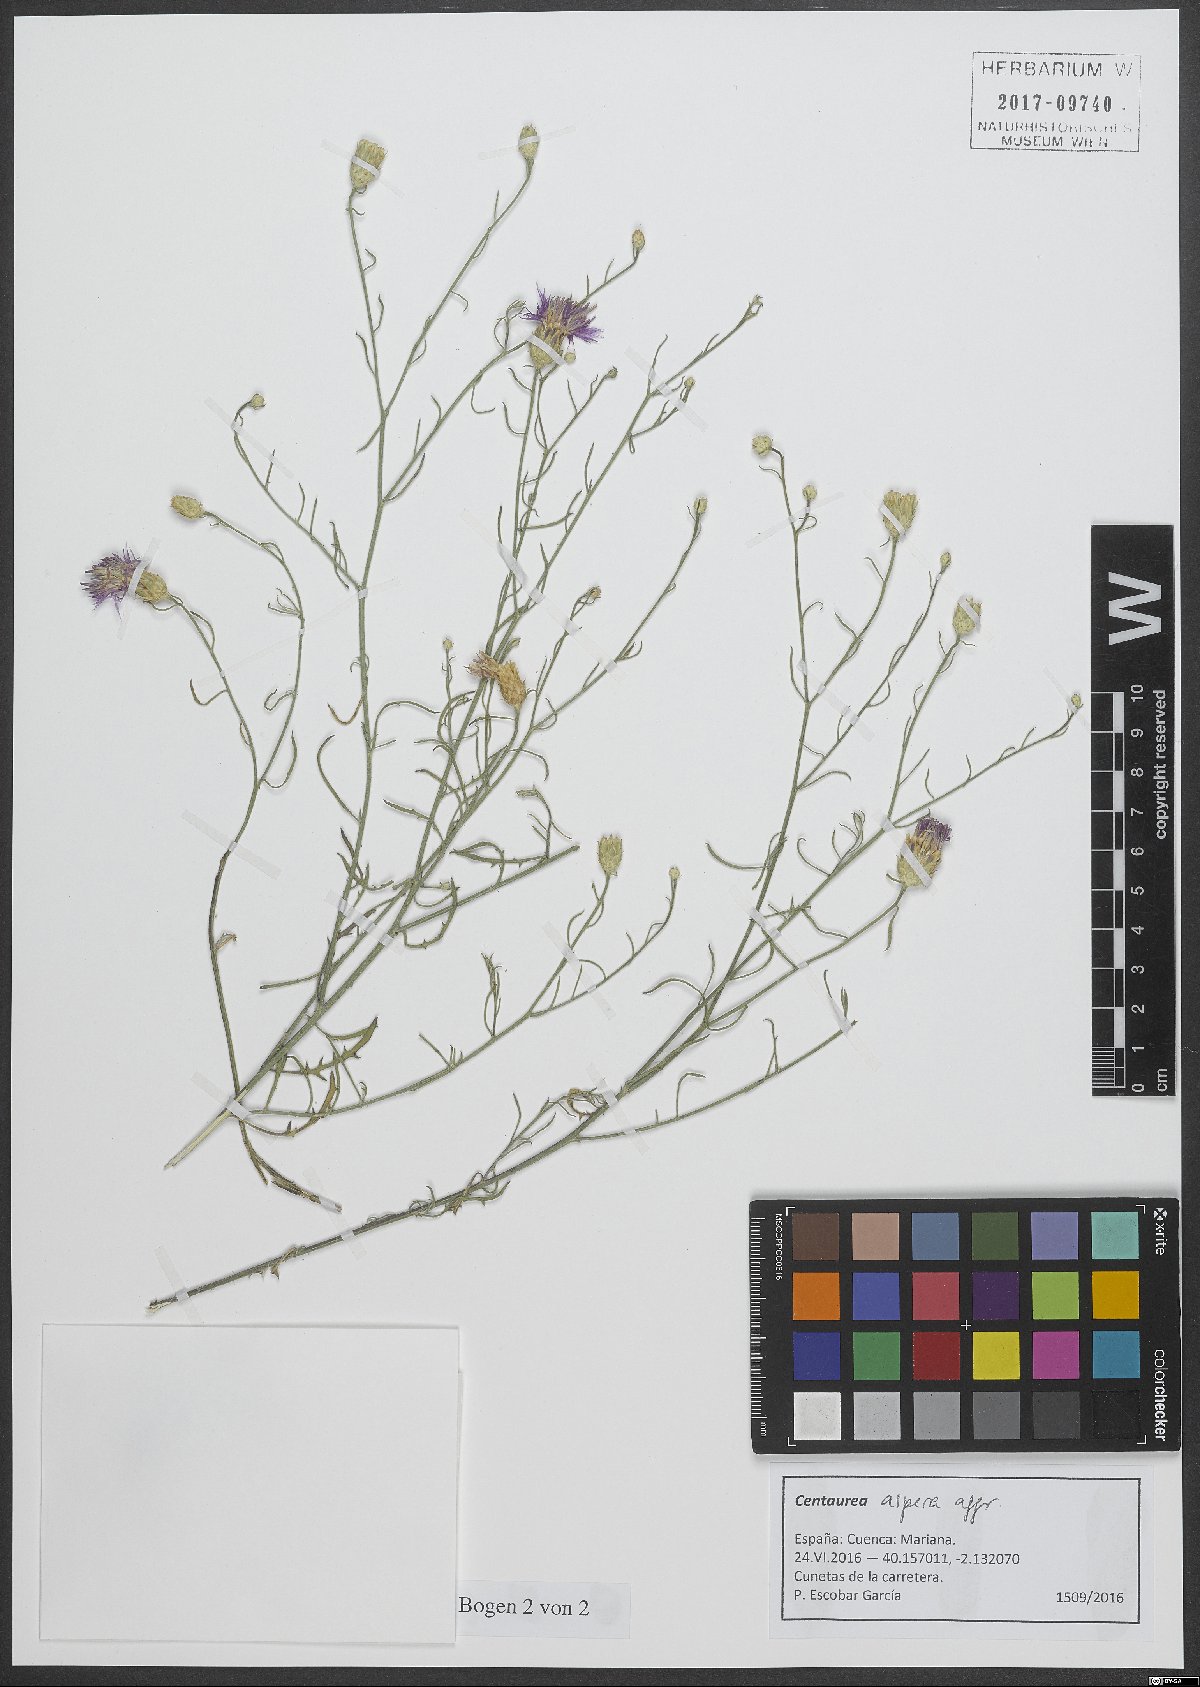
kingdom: Plantae
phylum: Tracheophyta
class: Magnoliopsida
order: Asterales
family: Asteraceae
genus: Centaurea
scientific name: Centaurea aspera
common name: Rough star-thistle
